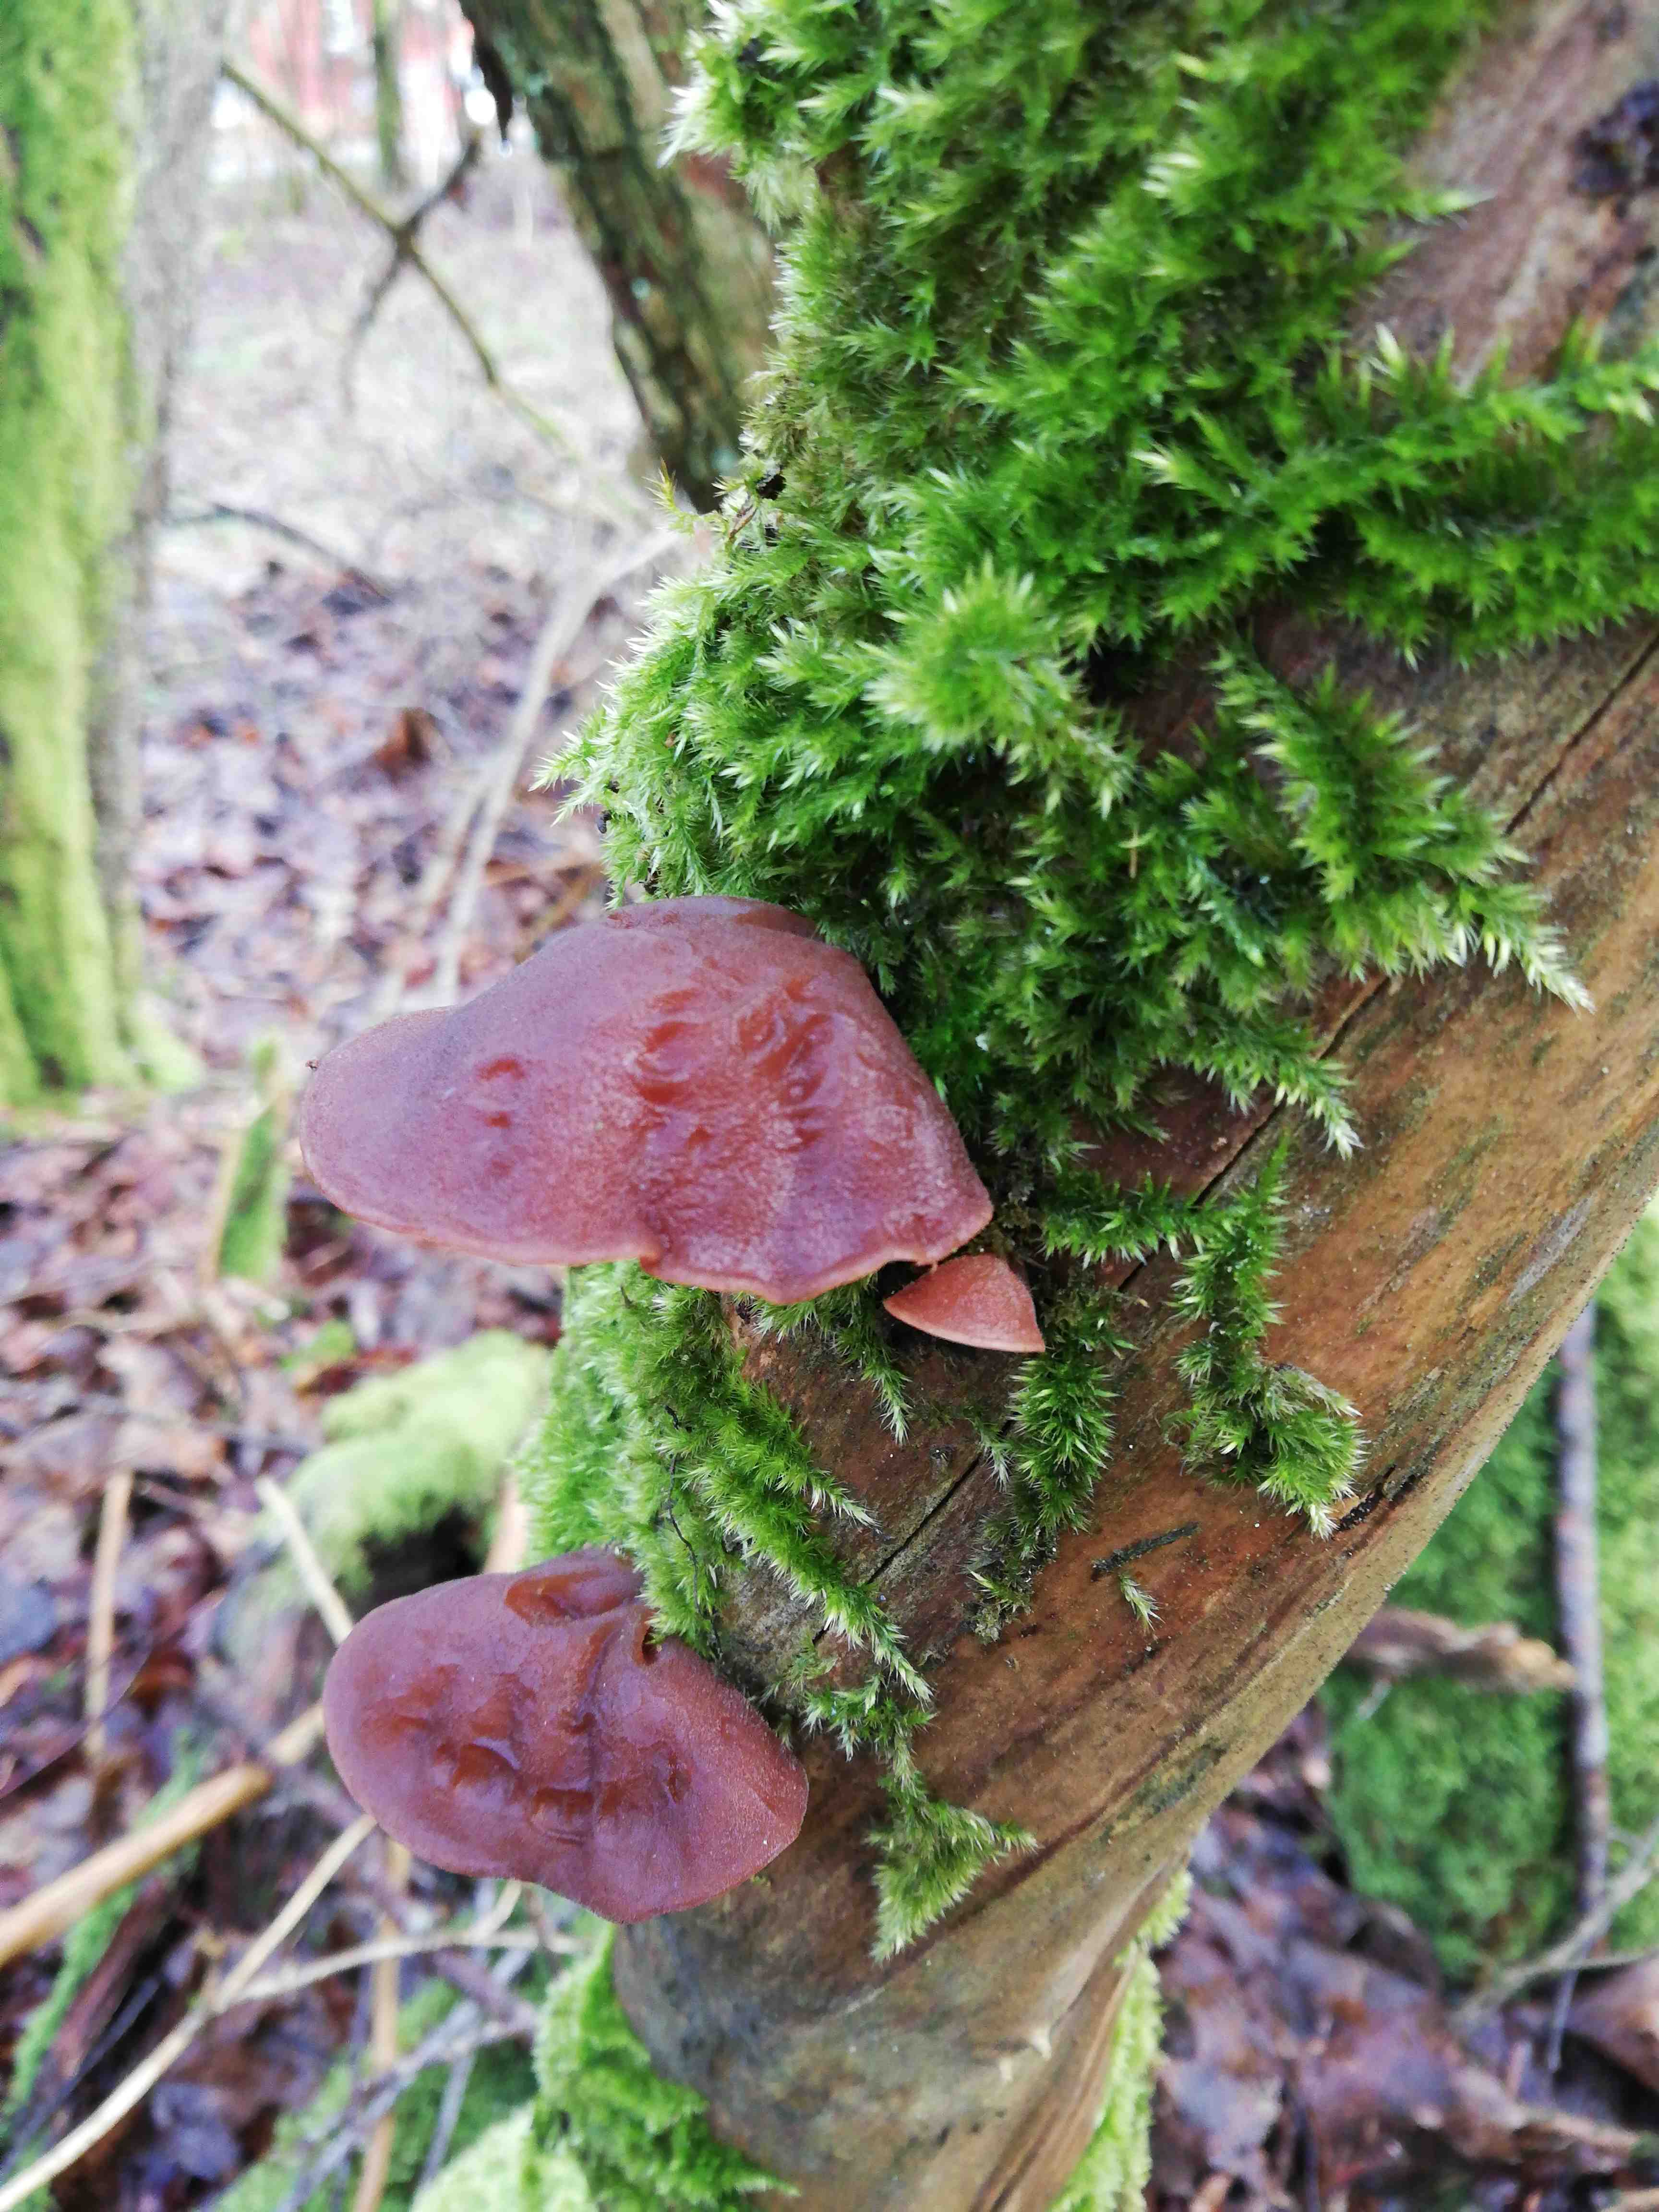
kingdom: Fungi
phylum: Basidiomycota
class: Agaricomycetes
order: Auriculariales
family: Auriculariaceae
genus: Auricularia
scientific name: Auricularia auricula-judae
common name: almindelig judasøre
